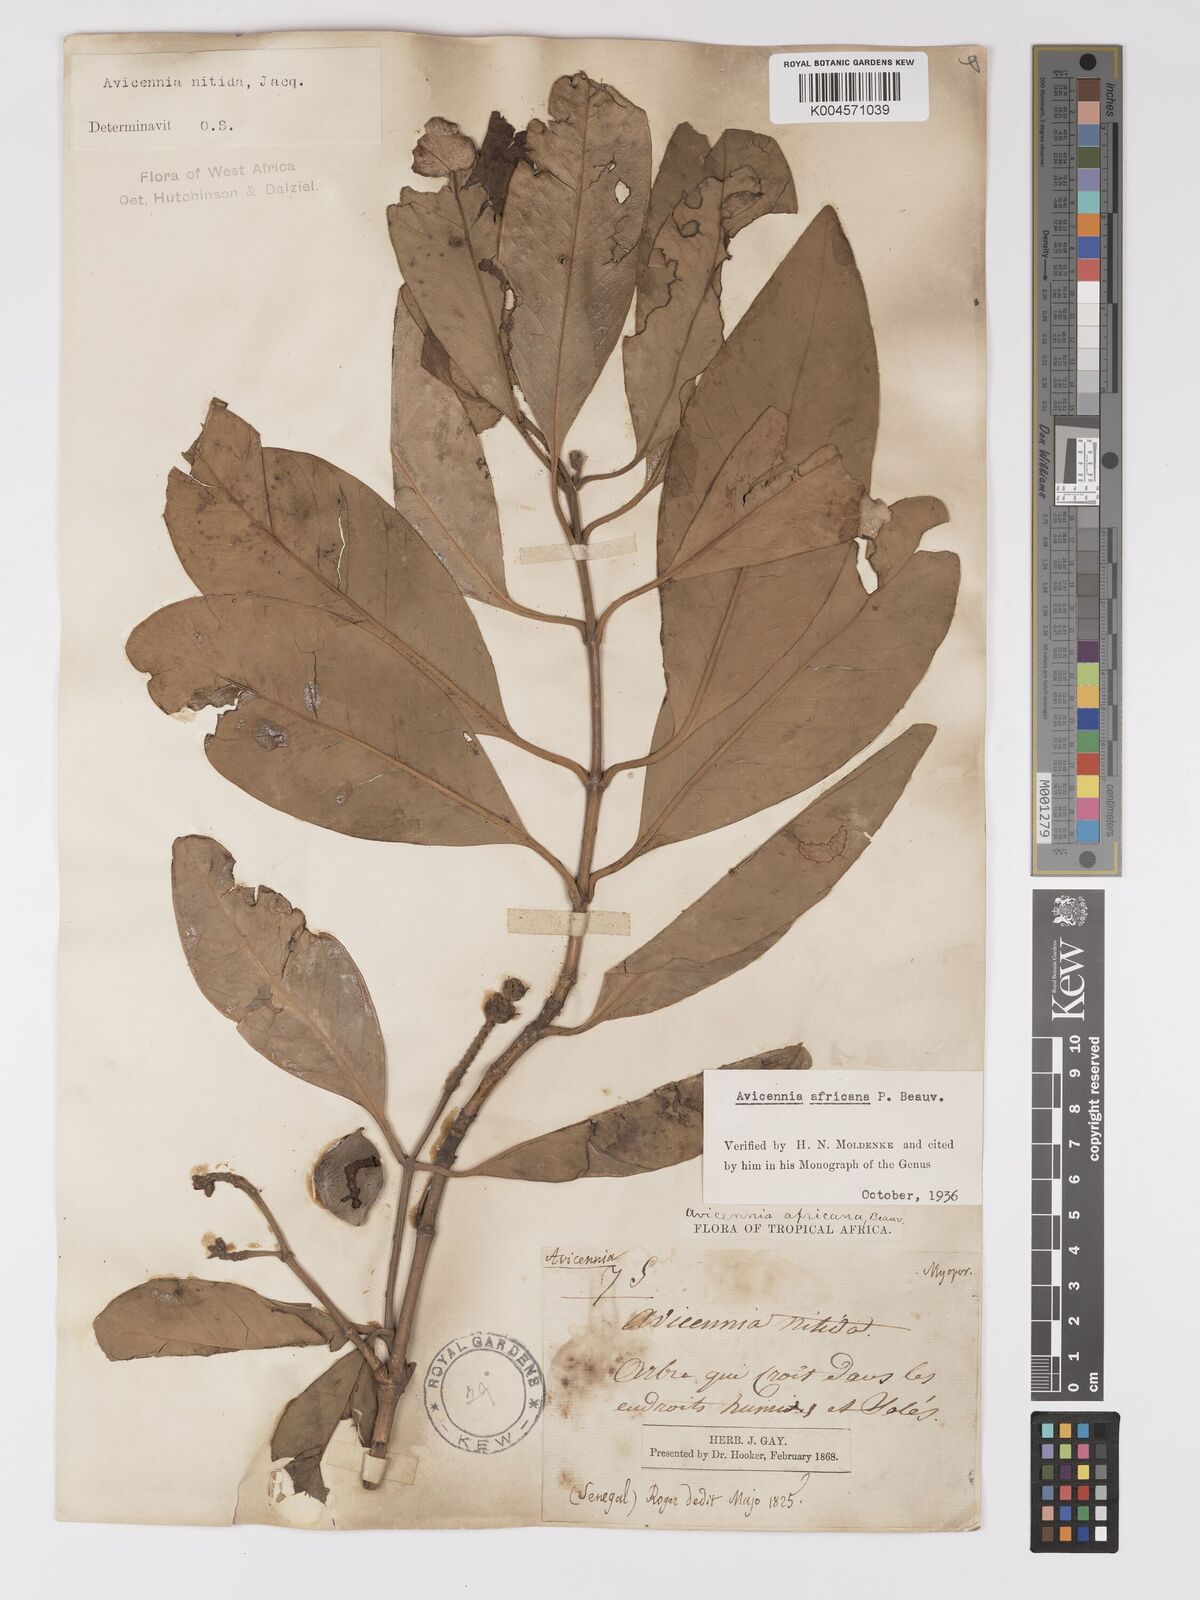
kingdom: Plantae
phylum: Tracheophyta
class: Magnoliopsida
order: Lamiales
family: Acanthaceae
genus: Avicennia
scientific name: Avicennia germinans
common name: Black mangrove
